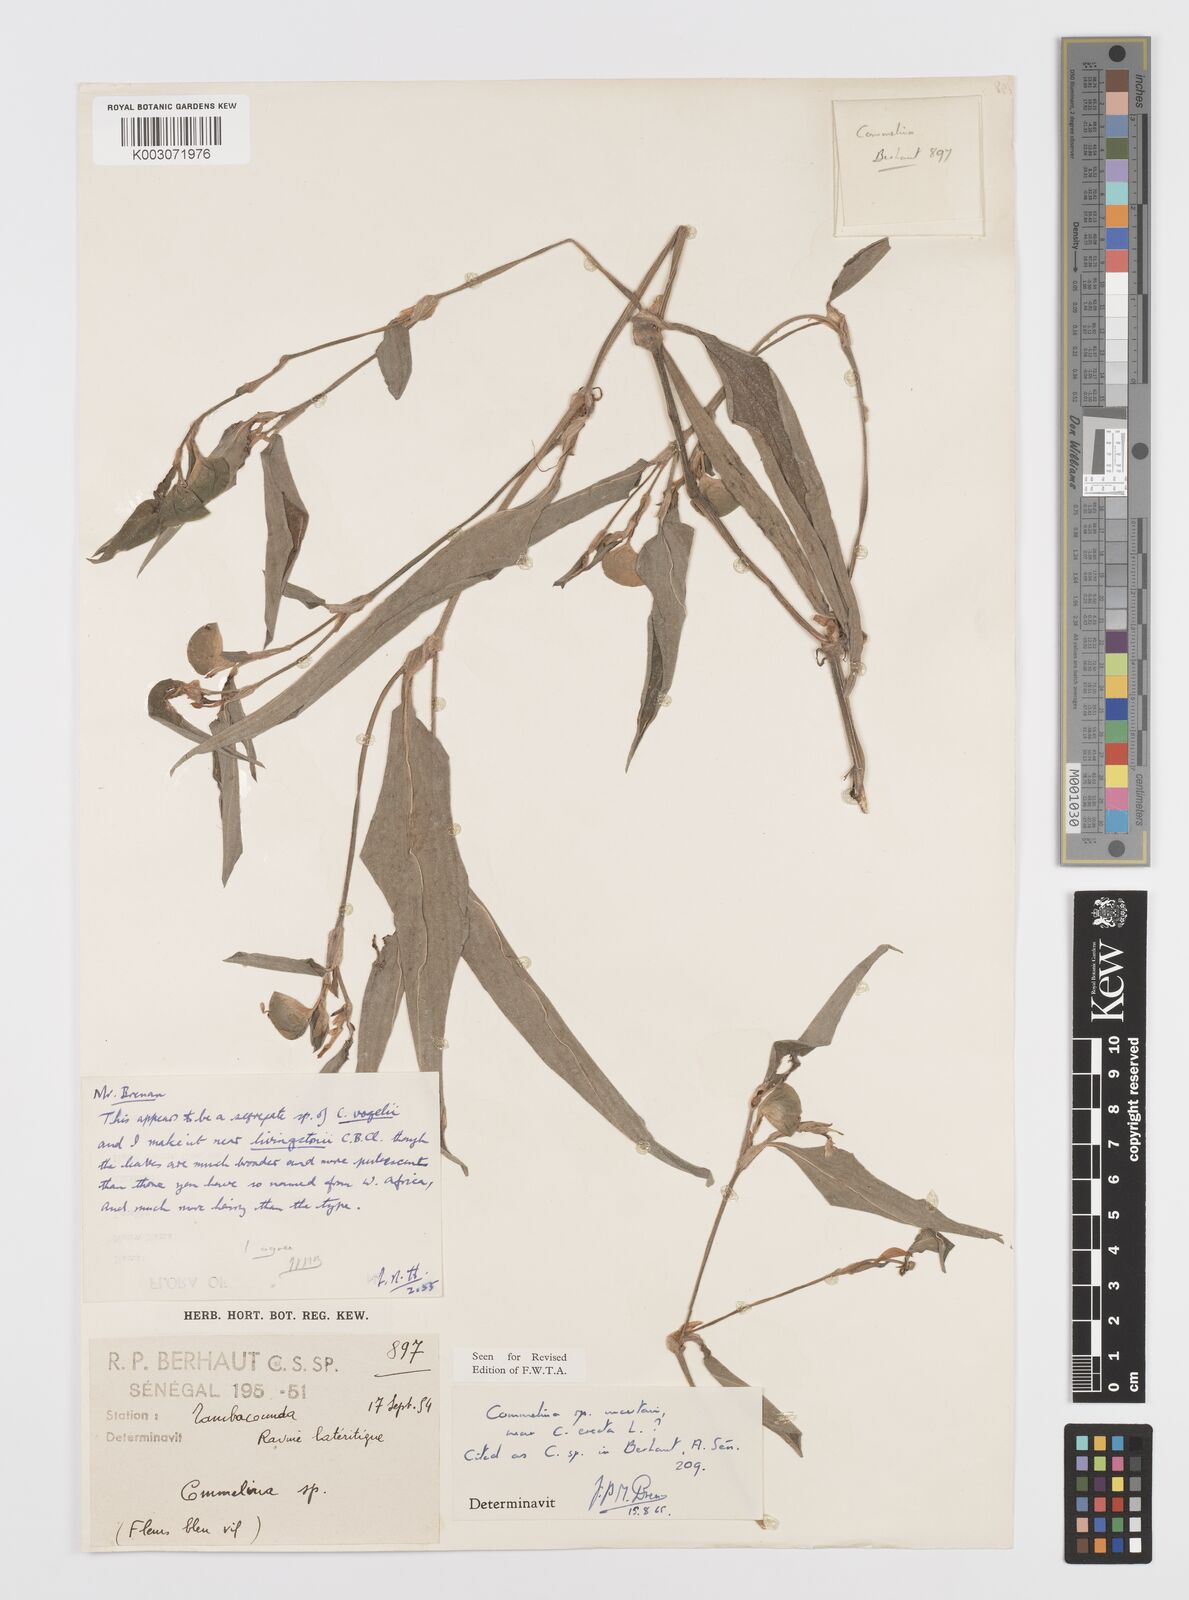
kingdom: Plantae
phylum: Tracheophyta
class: Liliopsida
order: Commelinales
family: Commelinaceae
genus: Commelina
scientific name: Commelina
